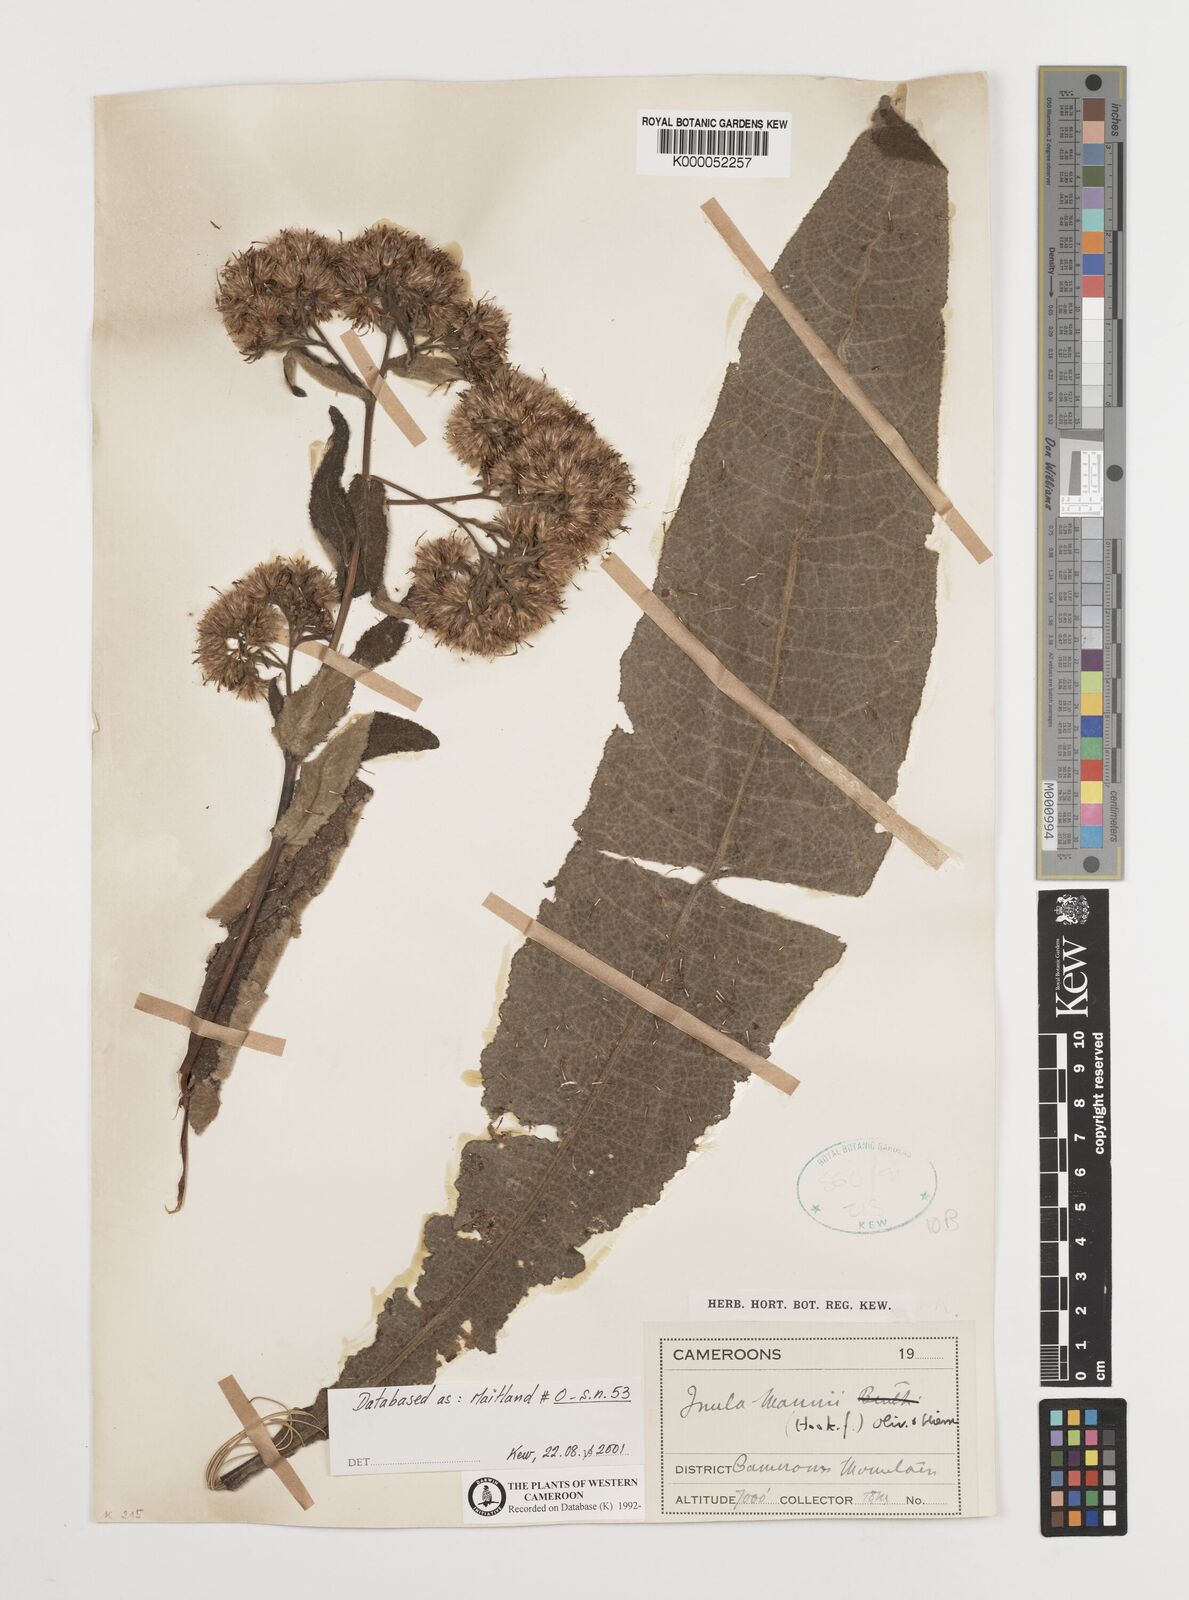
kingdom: Plantae
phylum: Tracheophyta
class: Magnoliopsida
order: Asterales
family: Asteraceae
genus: Inula
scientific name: Inula mannii
